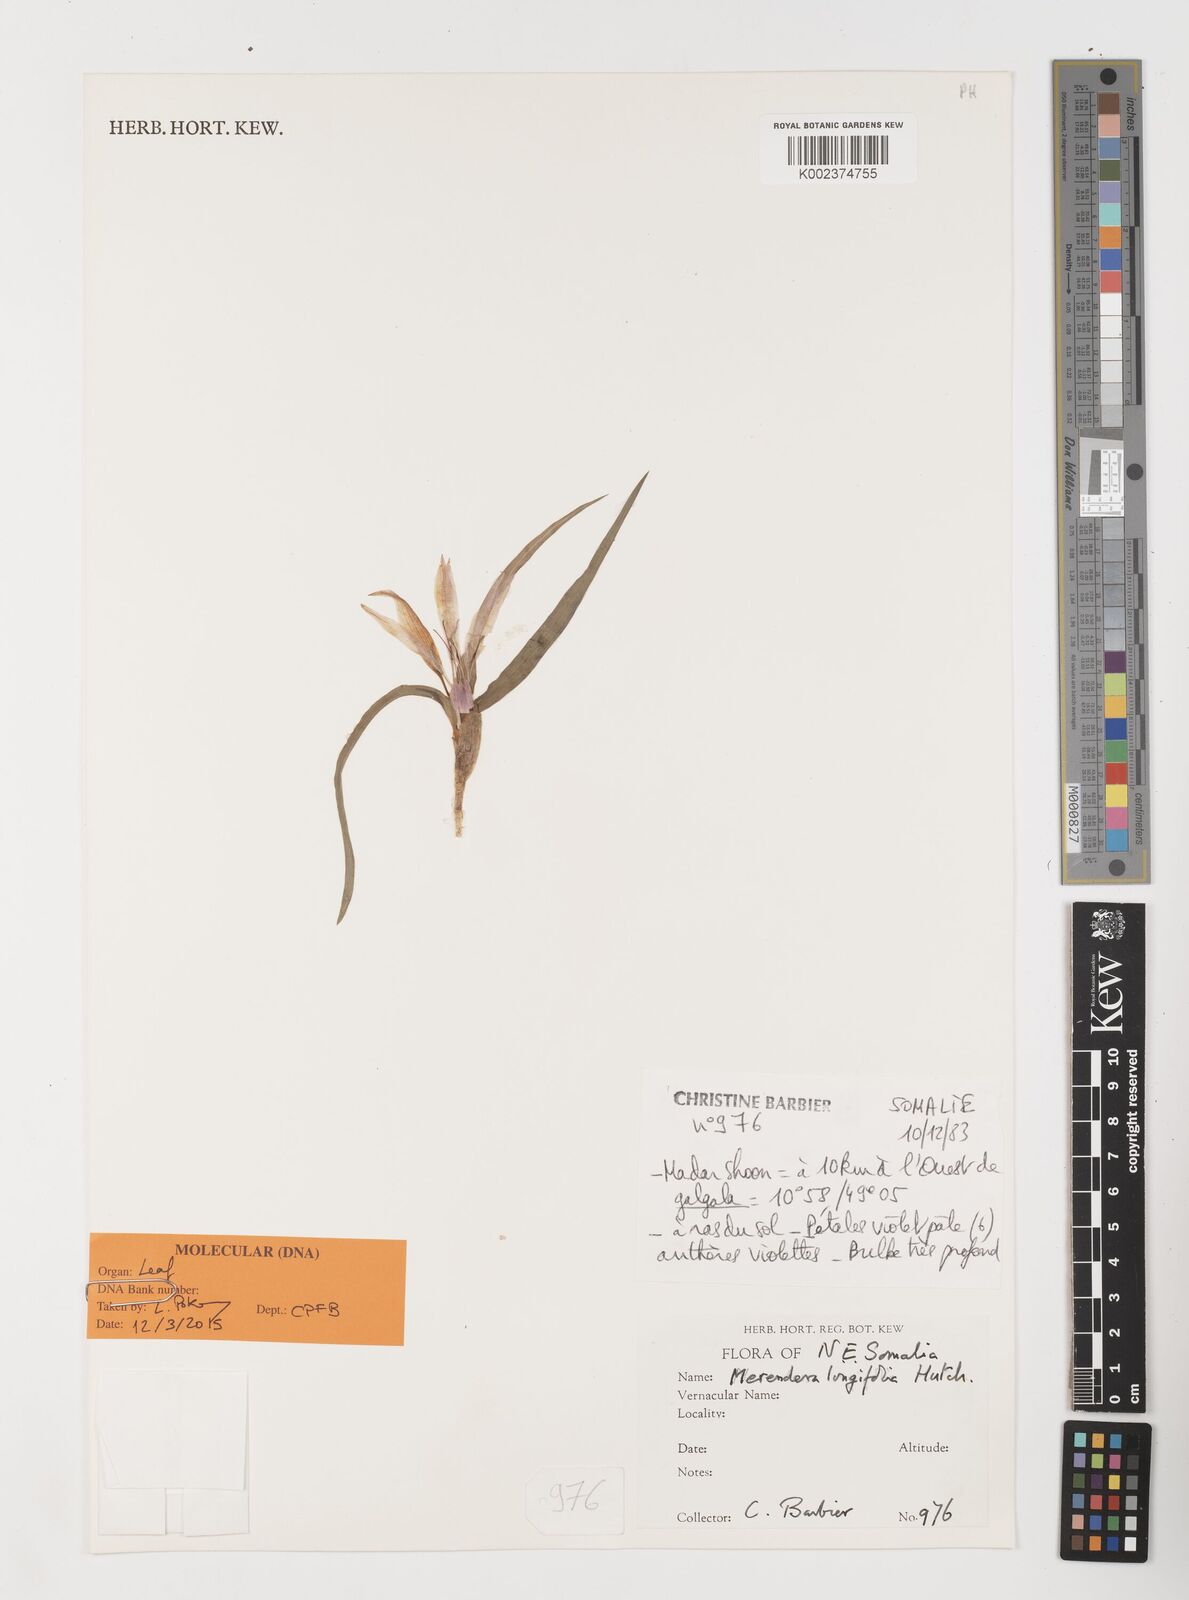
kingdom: Plantae
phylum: Tracheophyta
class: Liliopsida
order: Liliales
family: Colchicaceae
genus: Colchicum
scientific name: Colchicum longifolium
